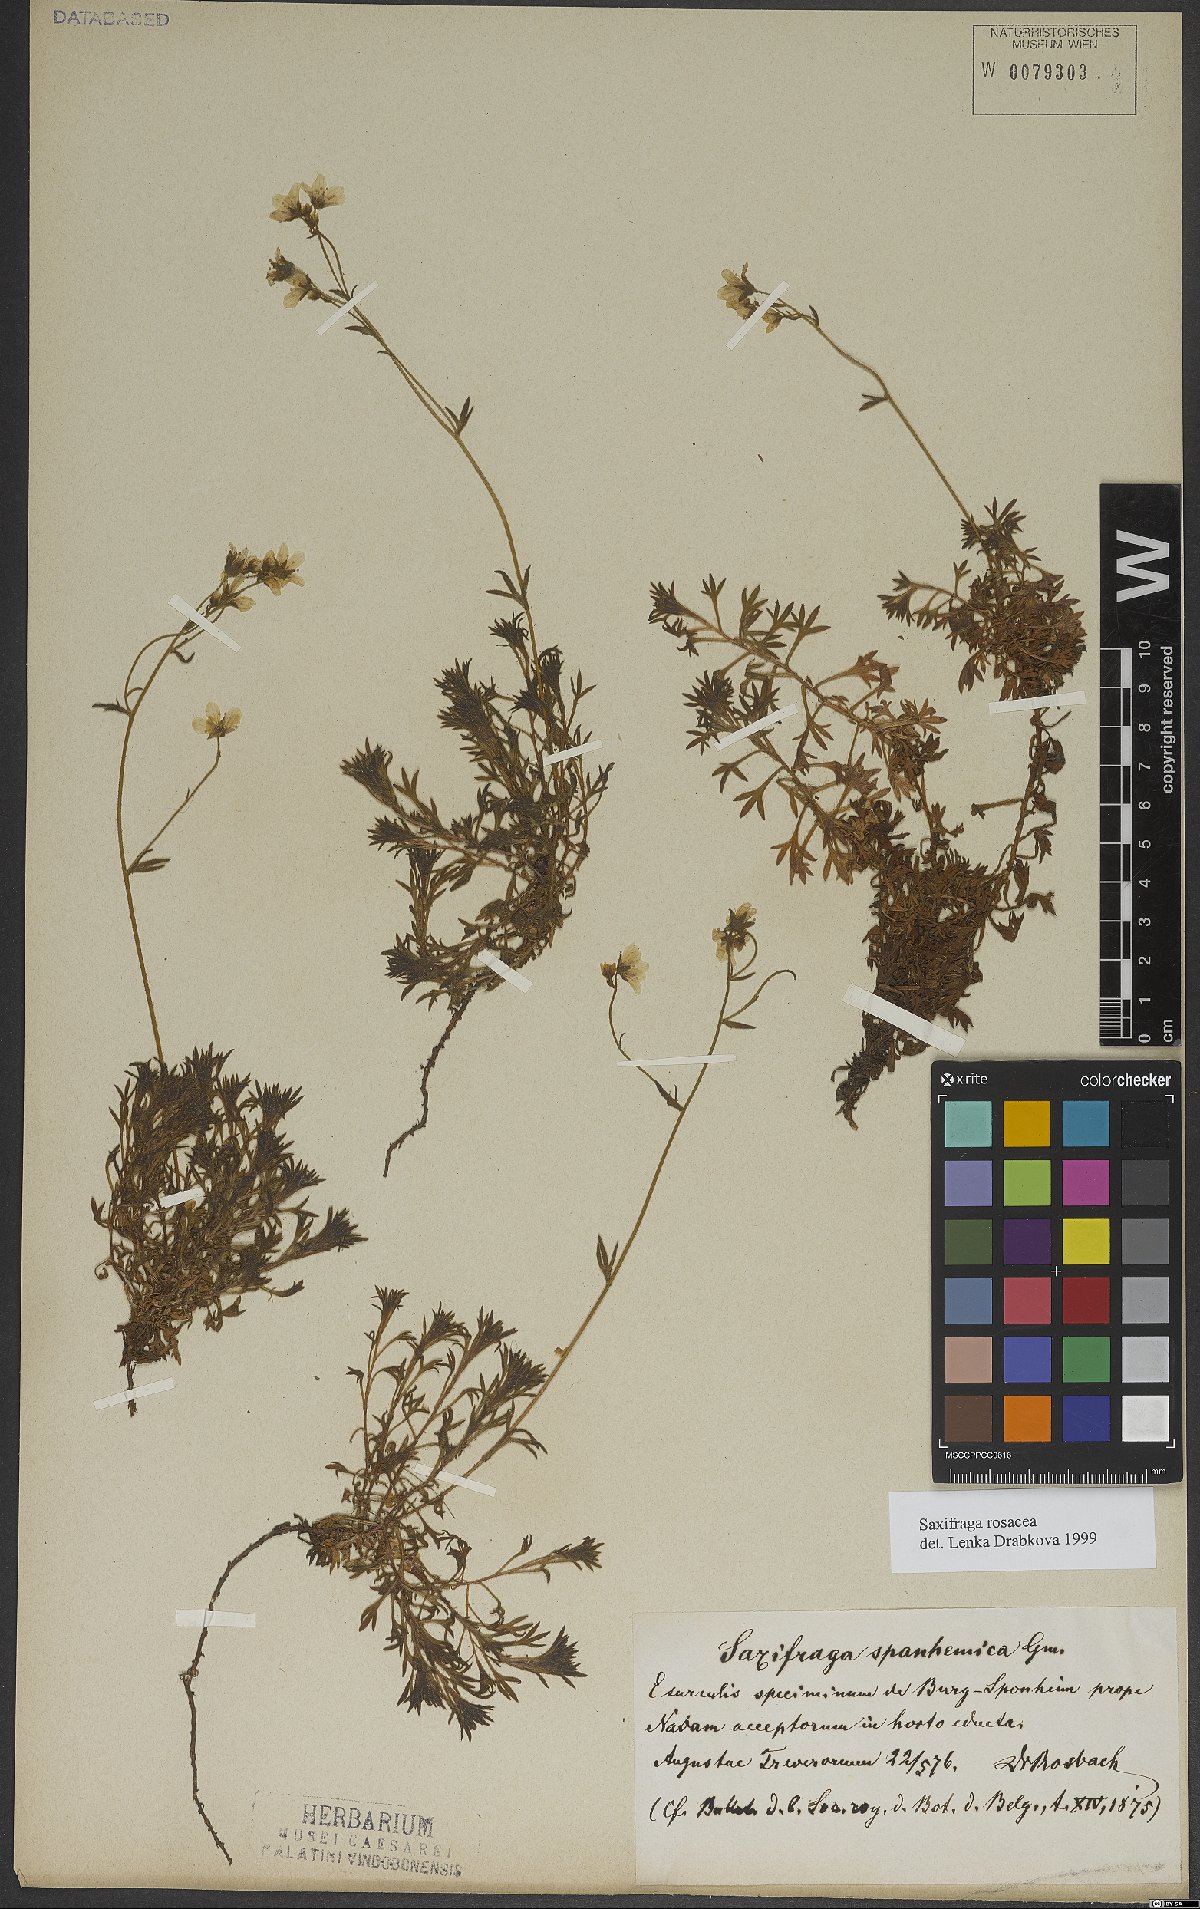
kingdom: Plantae
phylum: Tracheophyta
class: Magnoliopsida
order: Saxifragales
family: Saxifragaceae
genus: Saxifraga
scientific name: Saxifraga rosacea
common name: Irish saxifrage
